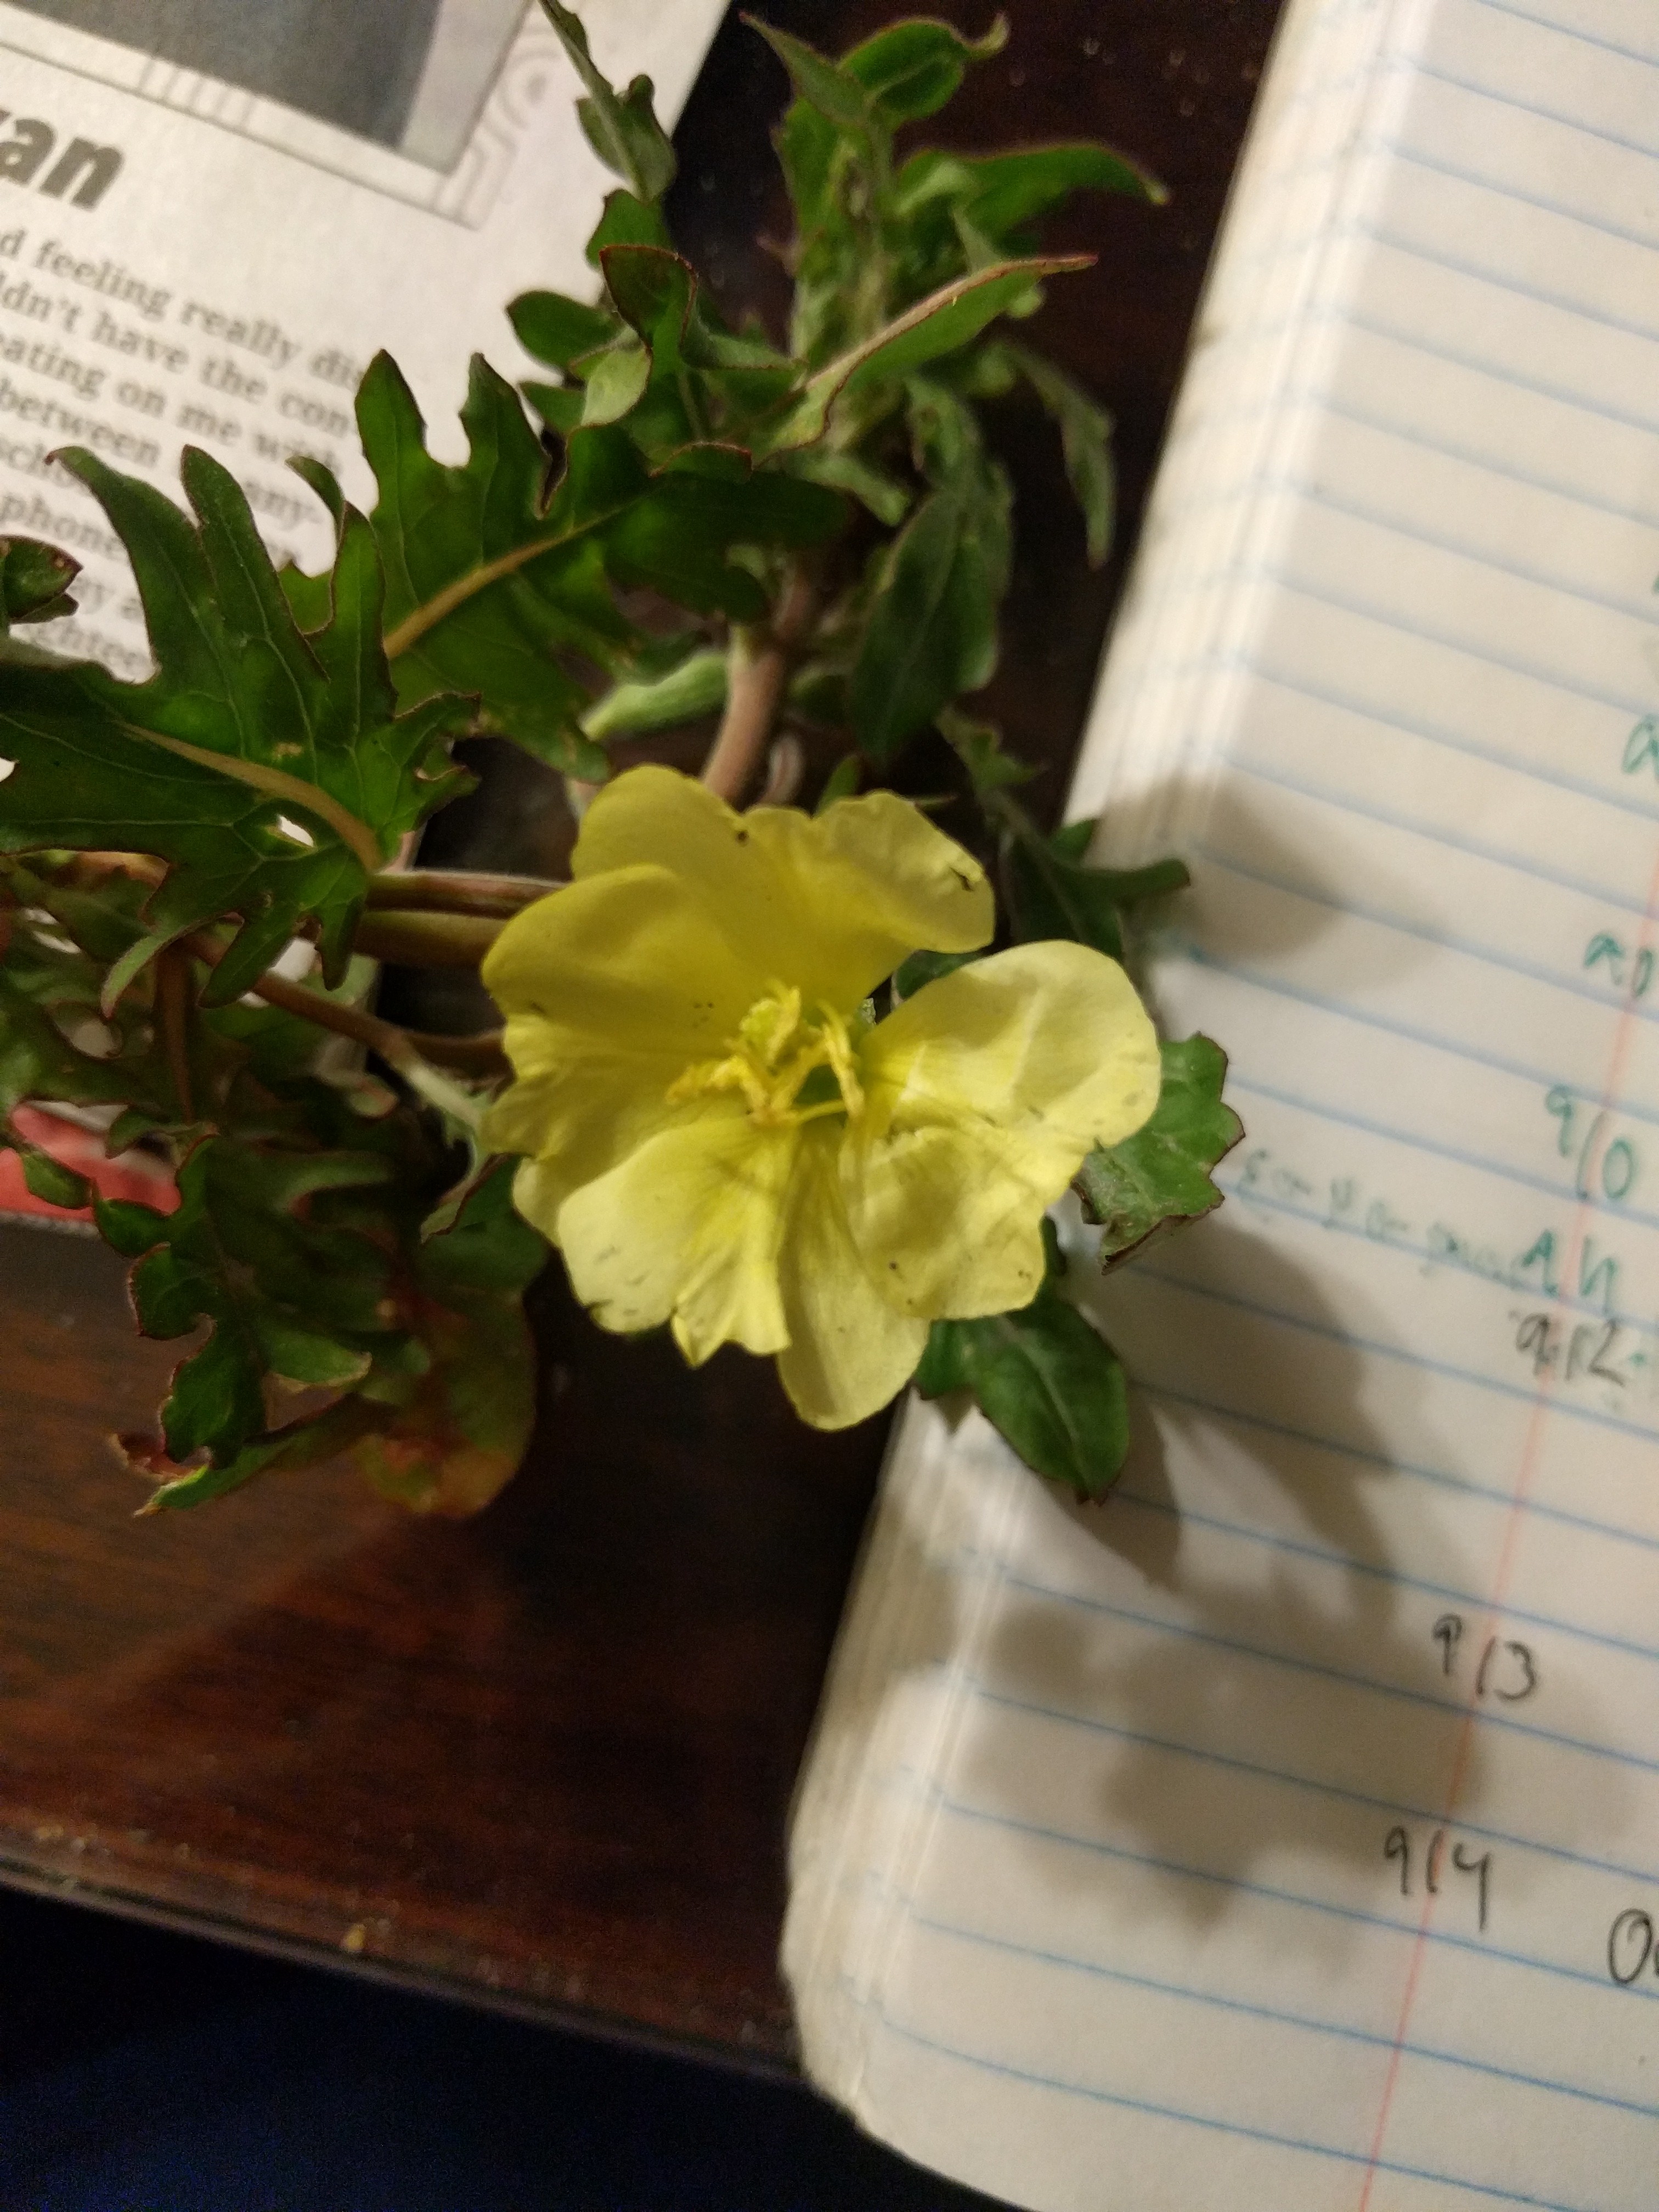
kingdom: Plantae
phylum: Tracheophyta
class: Magnoliopsida
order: Myrtales
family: Onagraceae
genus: Oenothera
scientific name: Oenothera laciniata
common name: Cut-leaved evening-primrose
